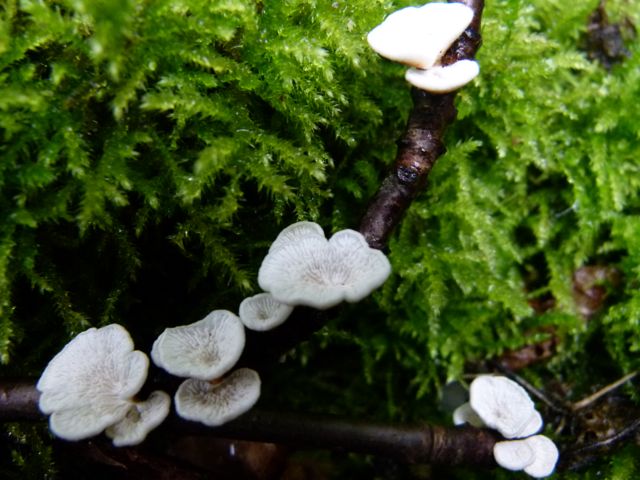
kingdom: Fungi
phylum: Basidiomycota
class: Agaricomycetes
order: Amylocorticiales
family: Amylocorticiaceae
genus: Plicaturopsis
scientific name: Plicaturopsis crispa
